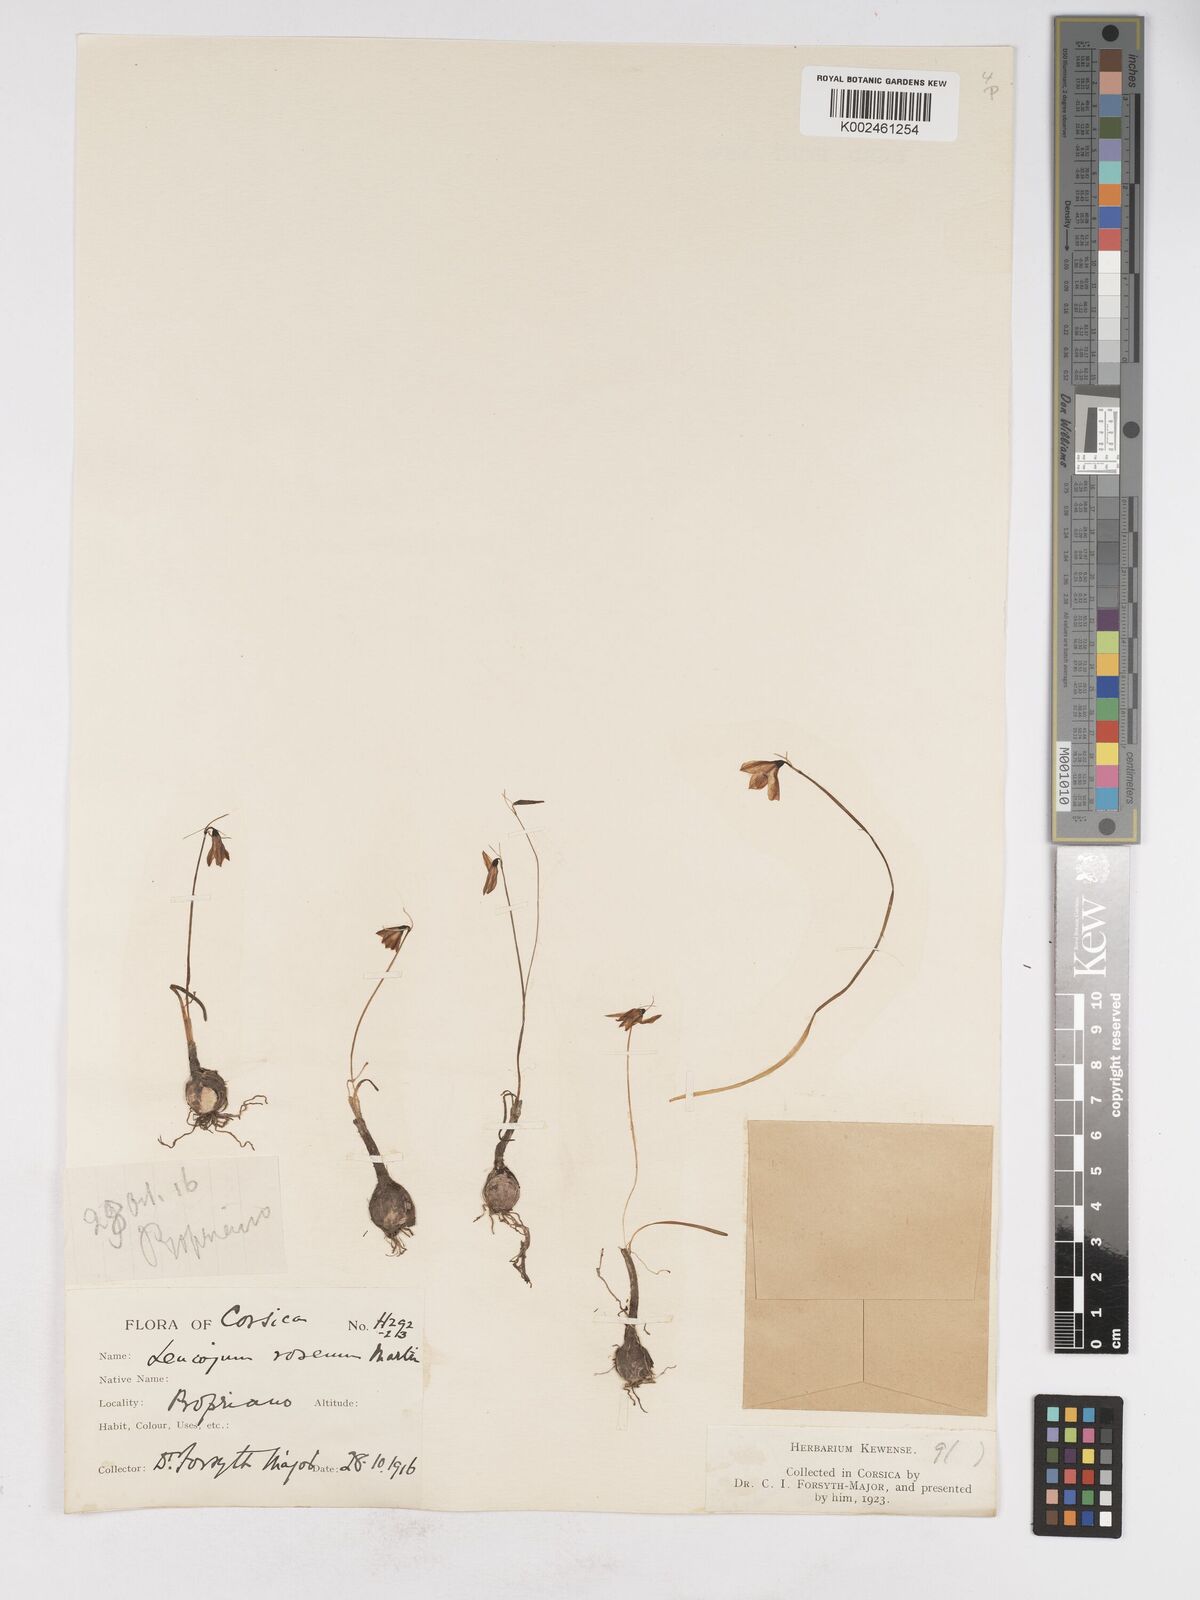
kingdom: Plantae
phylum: Tracheophyta
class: Liliopsida
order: Asparagales
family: Amaryllidaceae
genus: Acis
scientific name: Acis rosea
